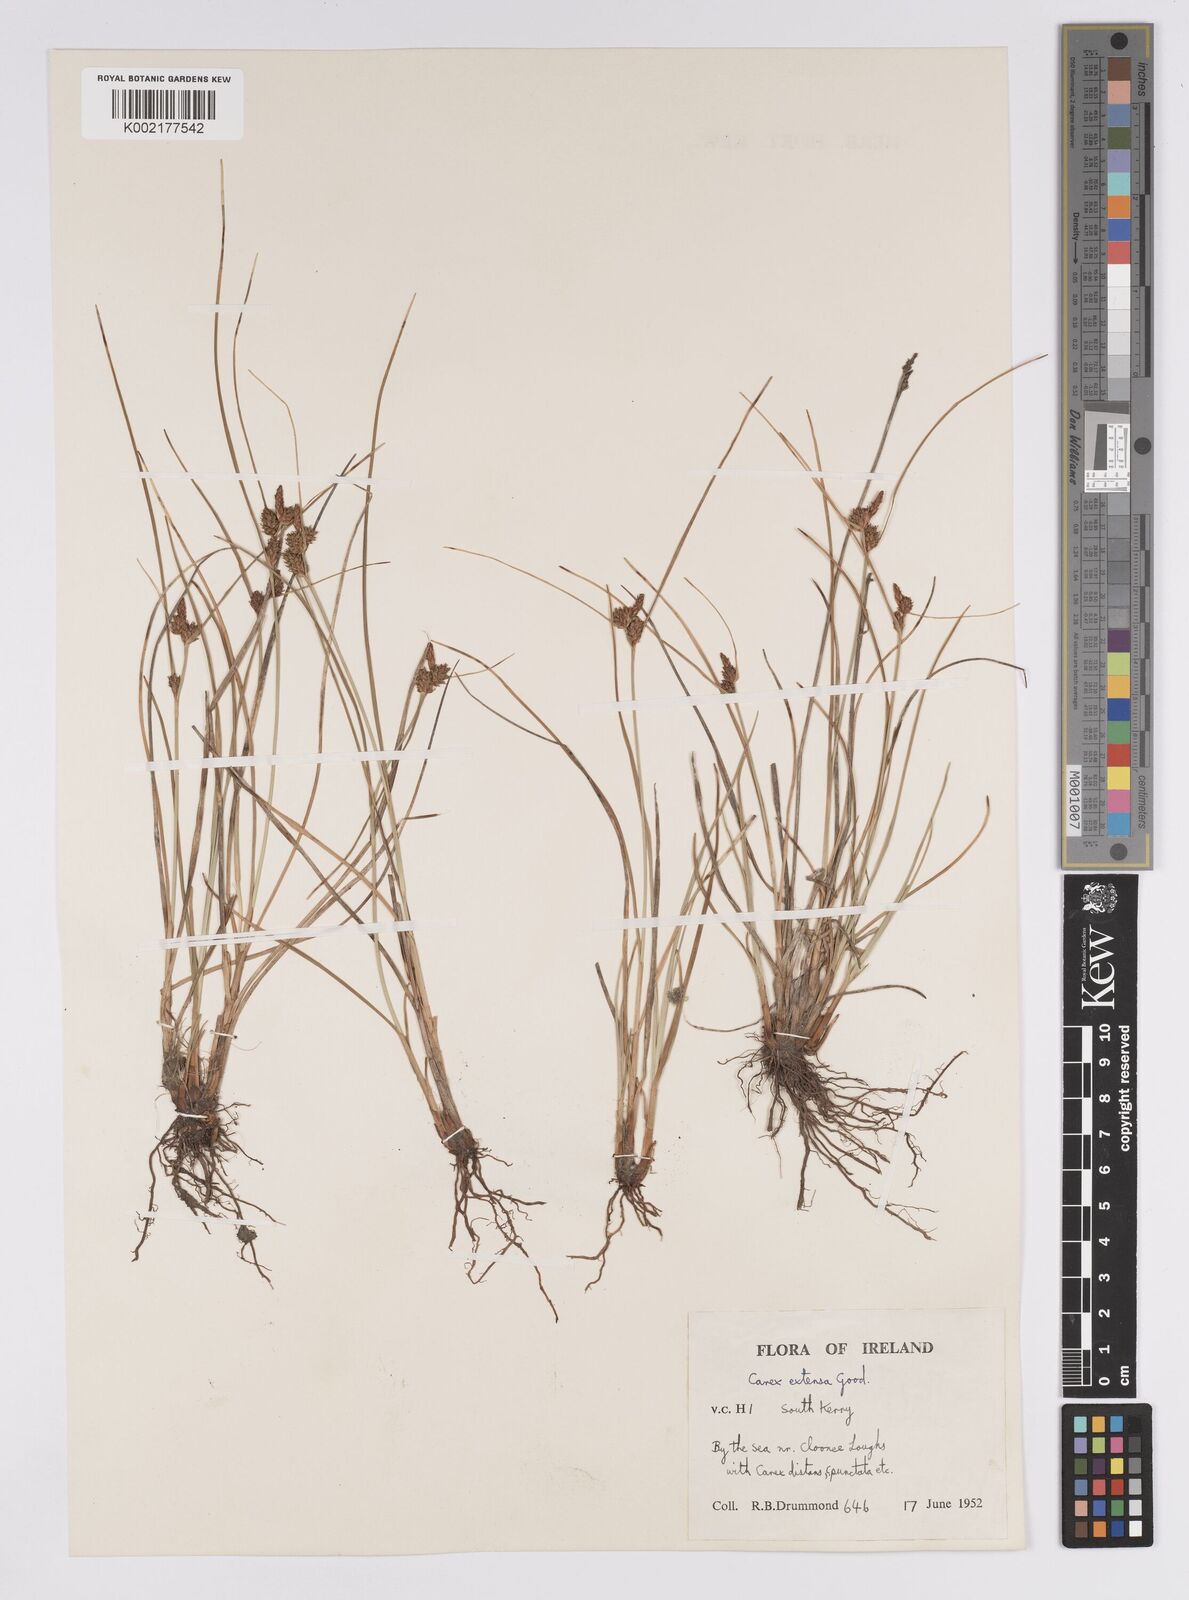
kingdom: Plantae
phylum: Tracheophyta
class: Liliopsida
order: Poales
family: Cyperaceae
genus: Carex
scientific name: Carex extensa
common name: Long-bracted sedge
